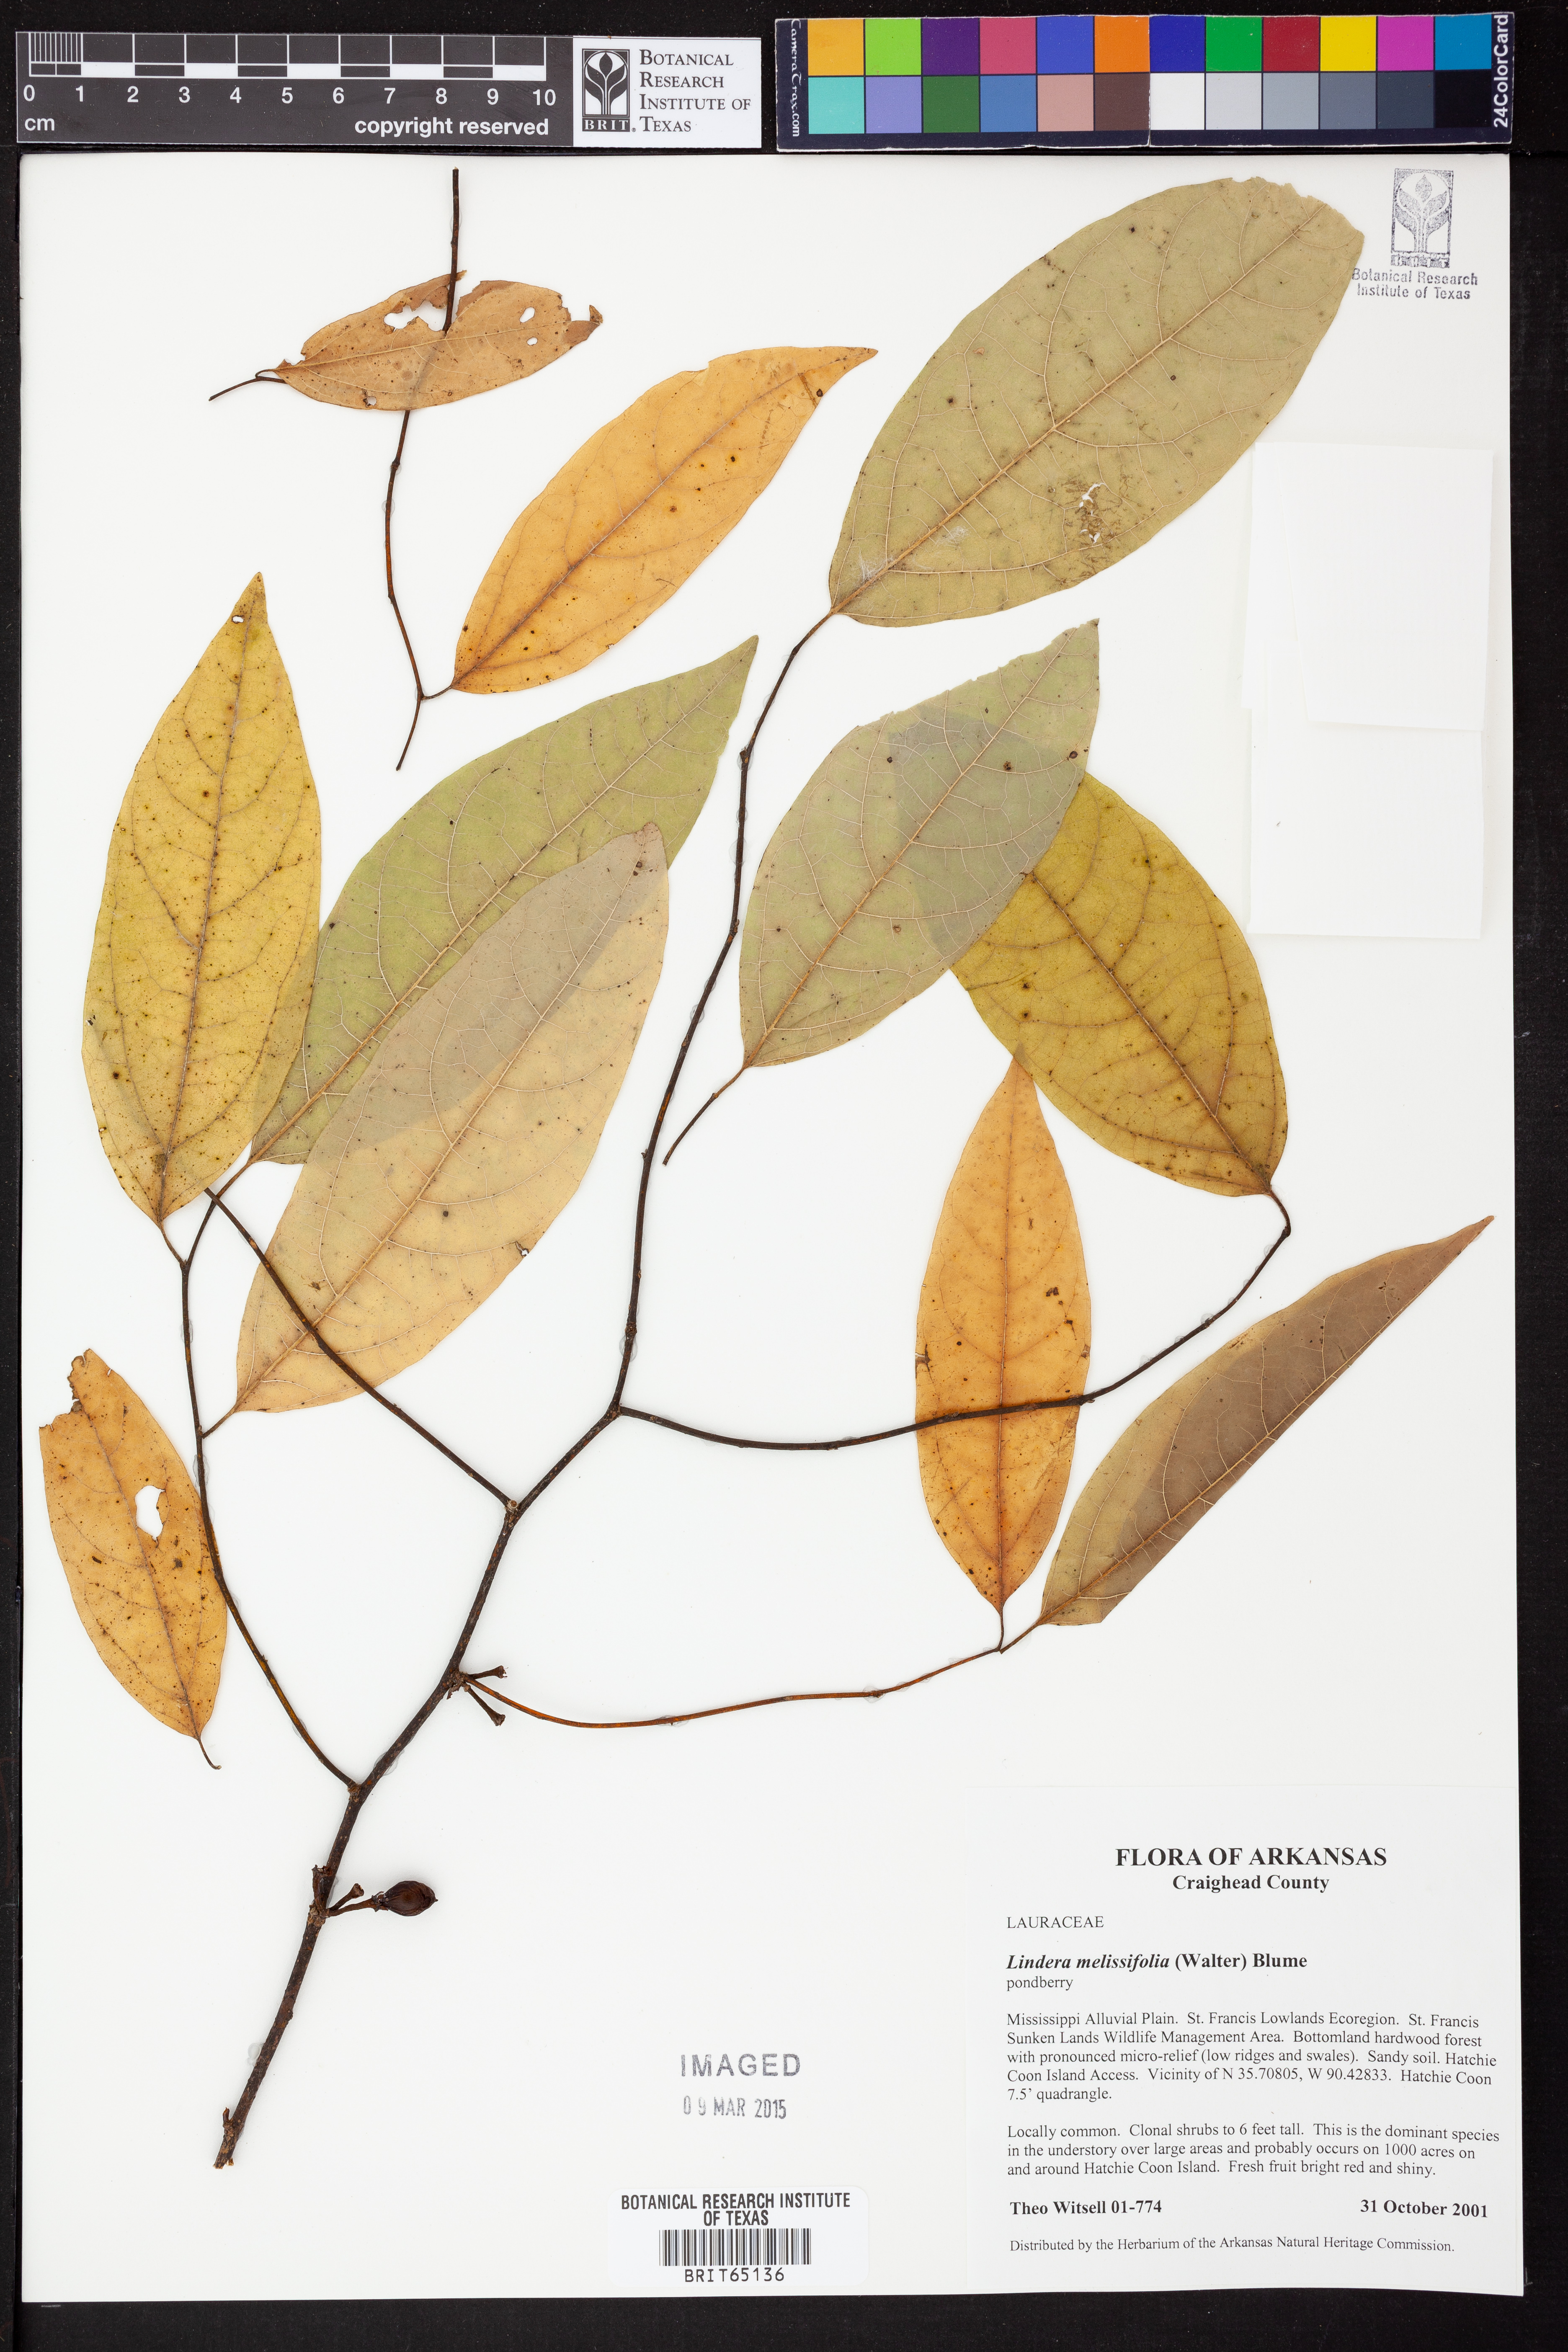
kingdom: Plantae
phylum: Tracheophyta
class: Magnoliopsida
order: Laurales
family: Lauraceae
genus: Lindera
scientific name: Lindera
